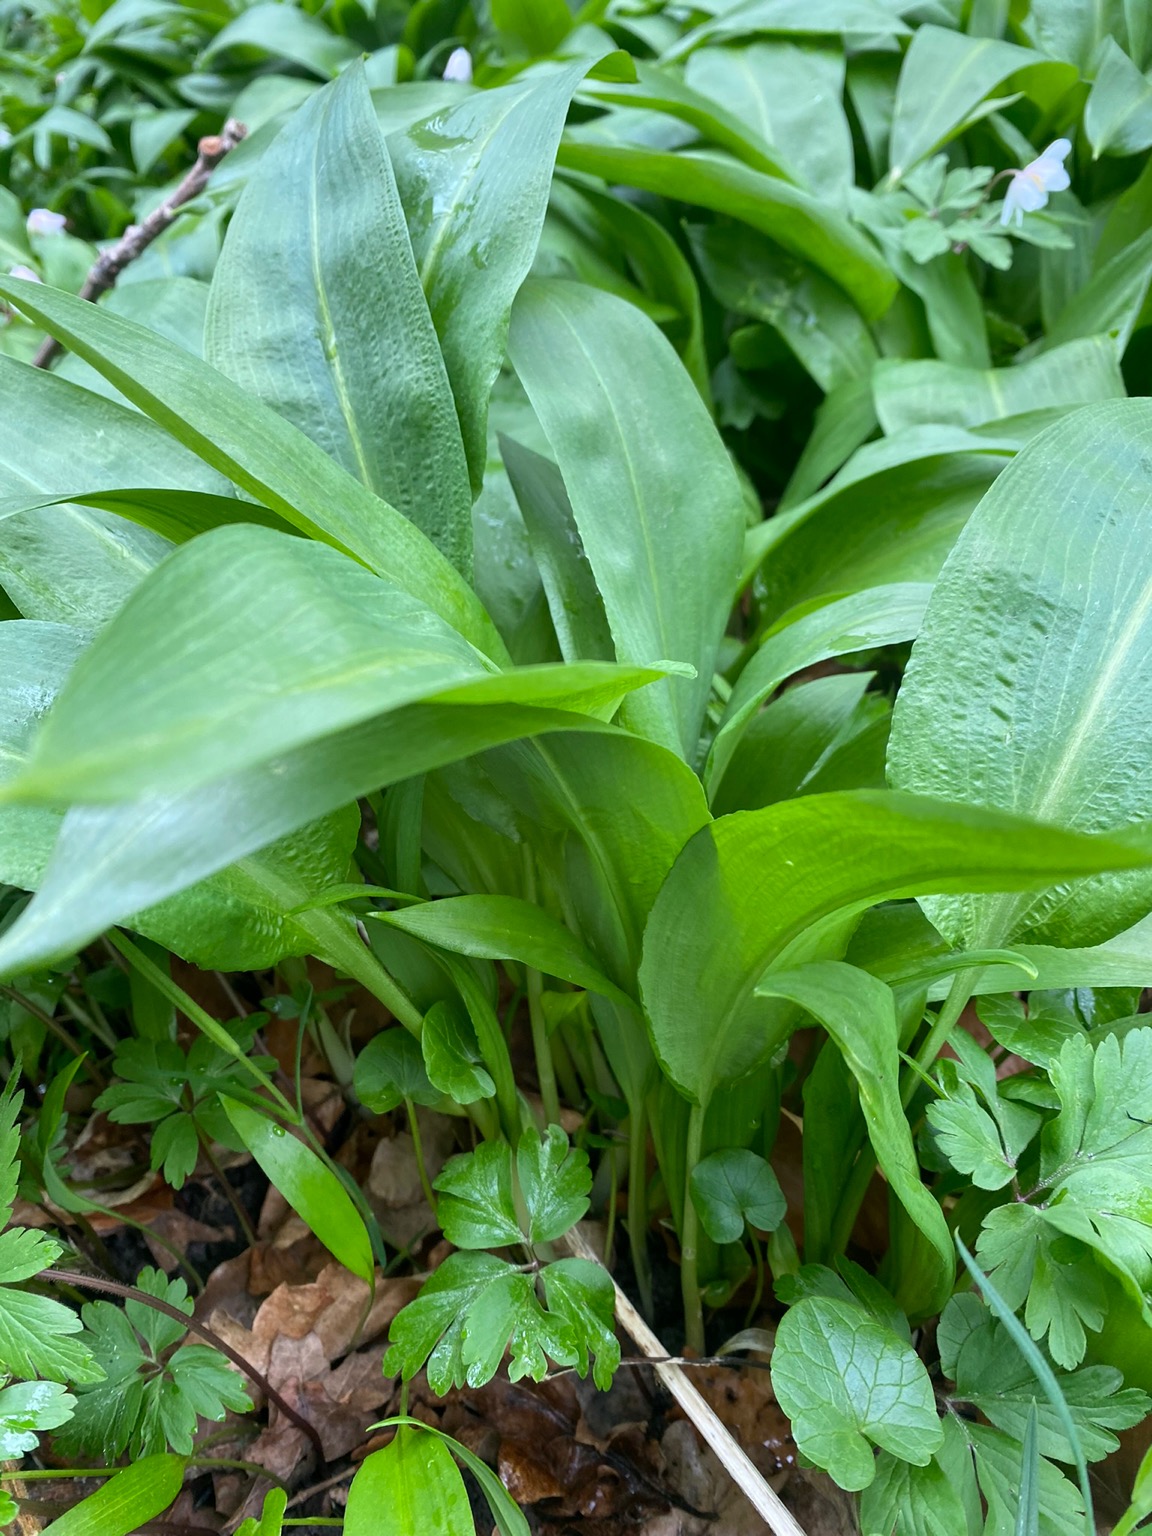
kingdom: Plantae
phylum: Tracheophyta
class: Liliopsida
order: Asparagales
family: Amaryllidaceae
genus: Allium
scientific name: Allium ursinum
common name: Rams-løg
